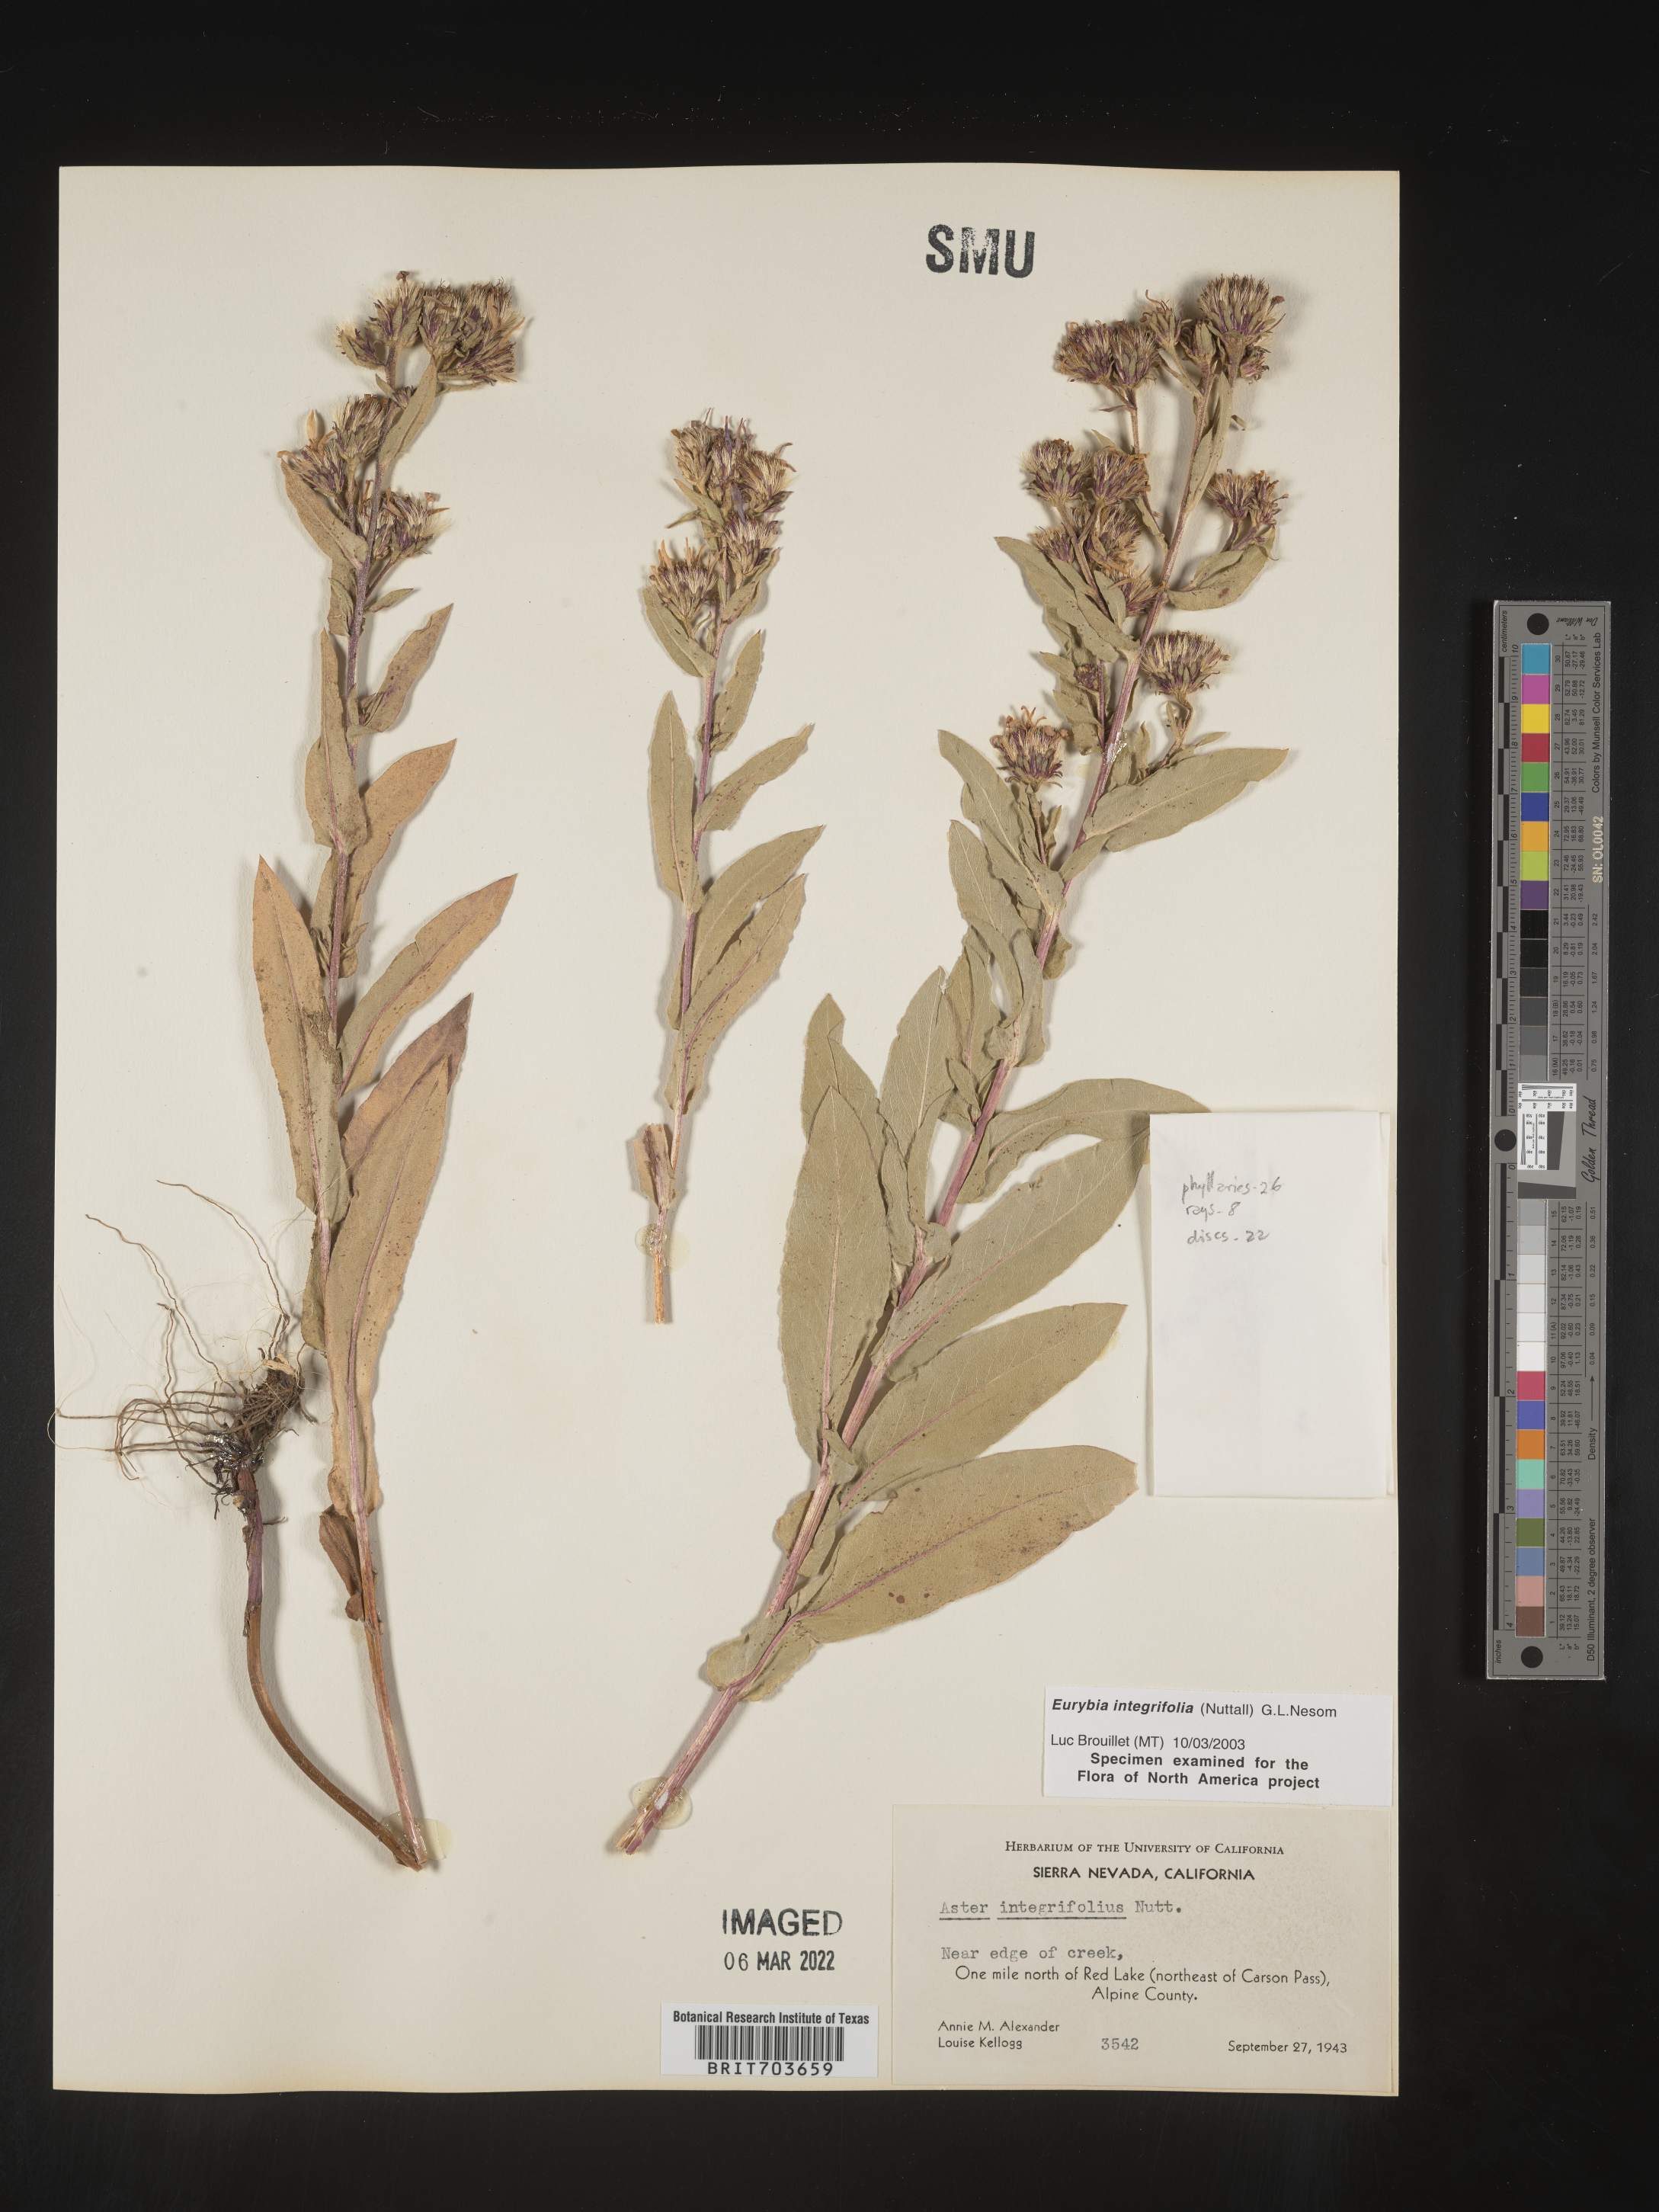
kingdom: Plantae
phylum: Tracheophyta
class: Magnoliopsida
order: Asterales
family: Asteraceae
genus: Eurybia
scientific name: Eurybia integrifolia
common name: Thick-stem aster
